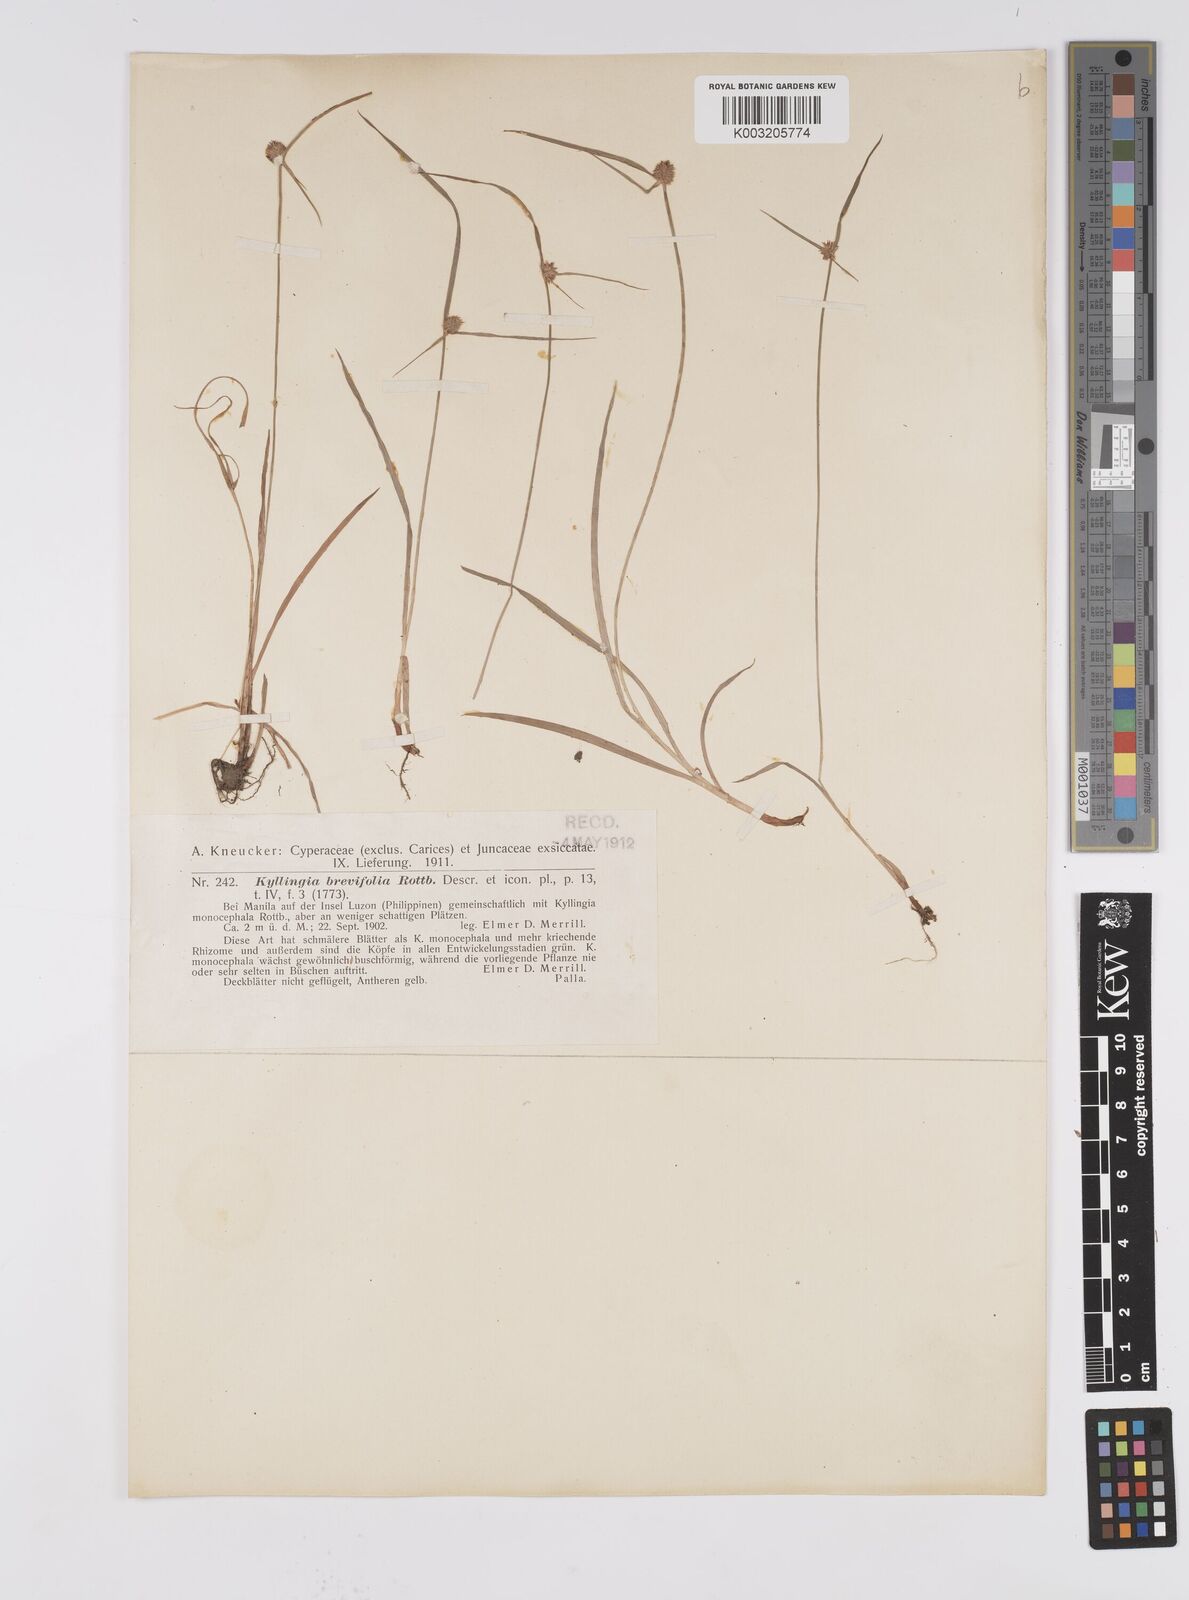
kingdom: Plantae
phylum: Tracheophyta
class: Liliopsida
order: Poales
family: Cyperaceae
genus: Cyperus
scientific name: Cyperus brevifolius
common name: Globe kyllinga
